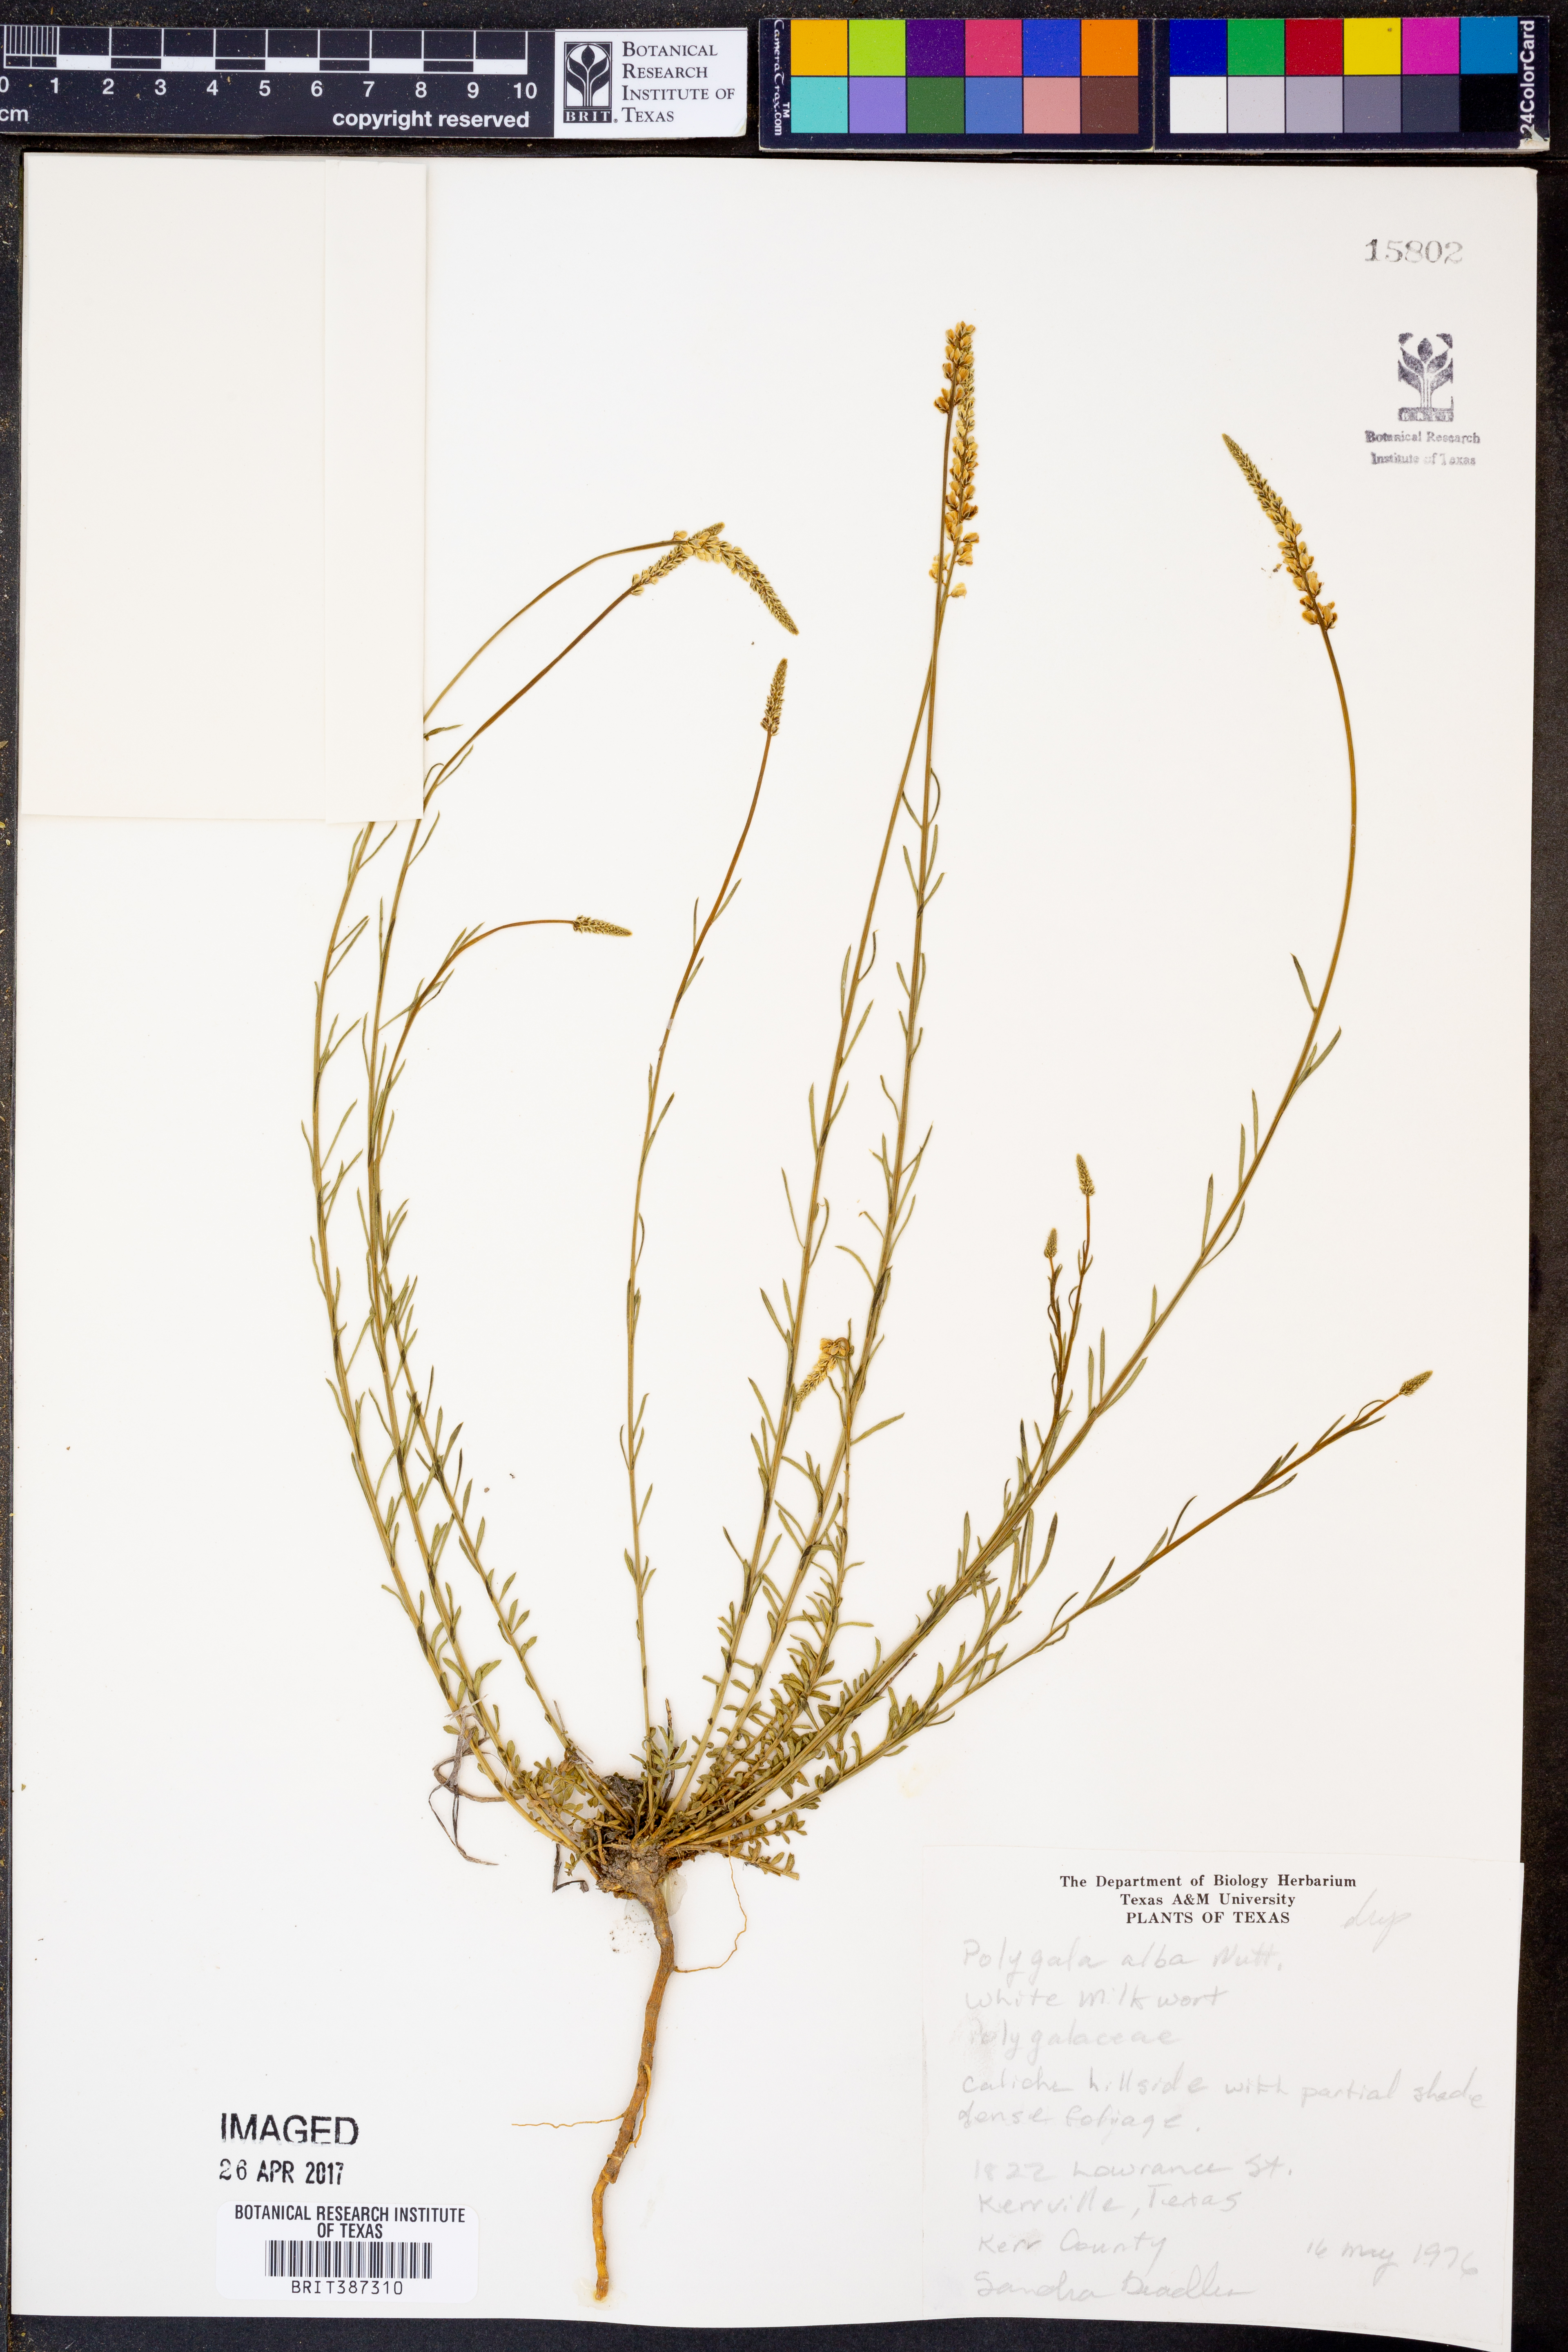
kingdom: Plantae
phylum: Tracheophyta
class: Magnoliopsida
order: Fabales
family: Polygalaceae
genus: Polygala
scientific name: Polygala alba
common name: White milkwort
